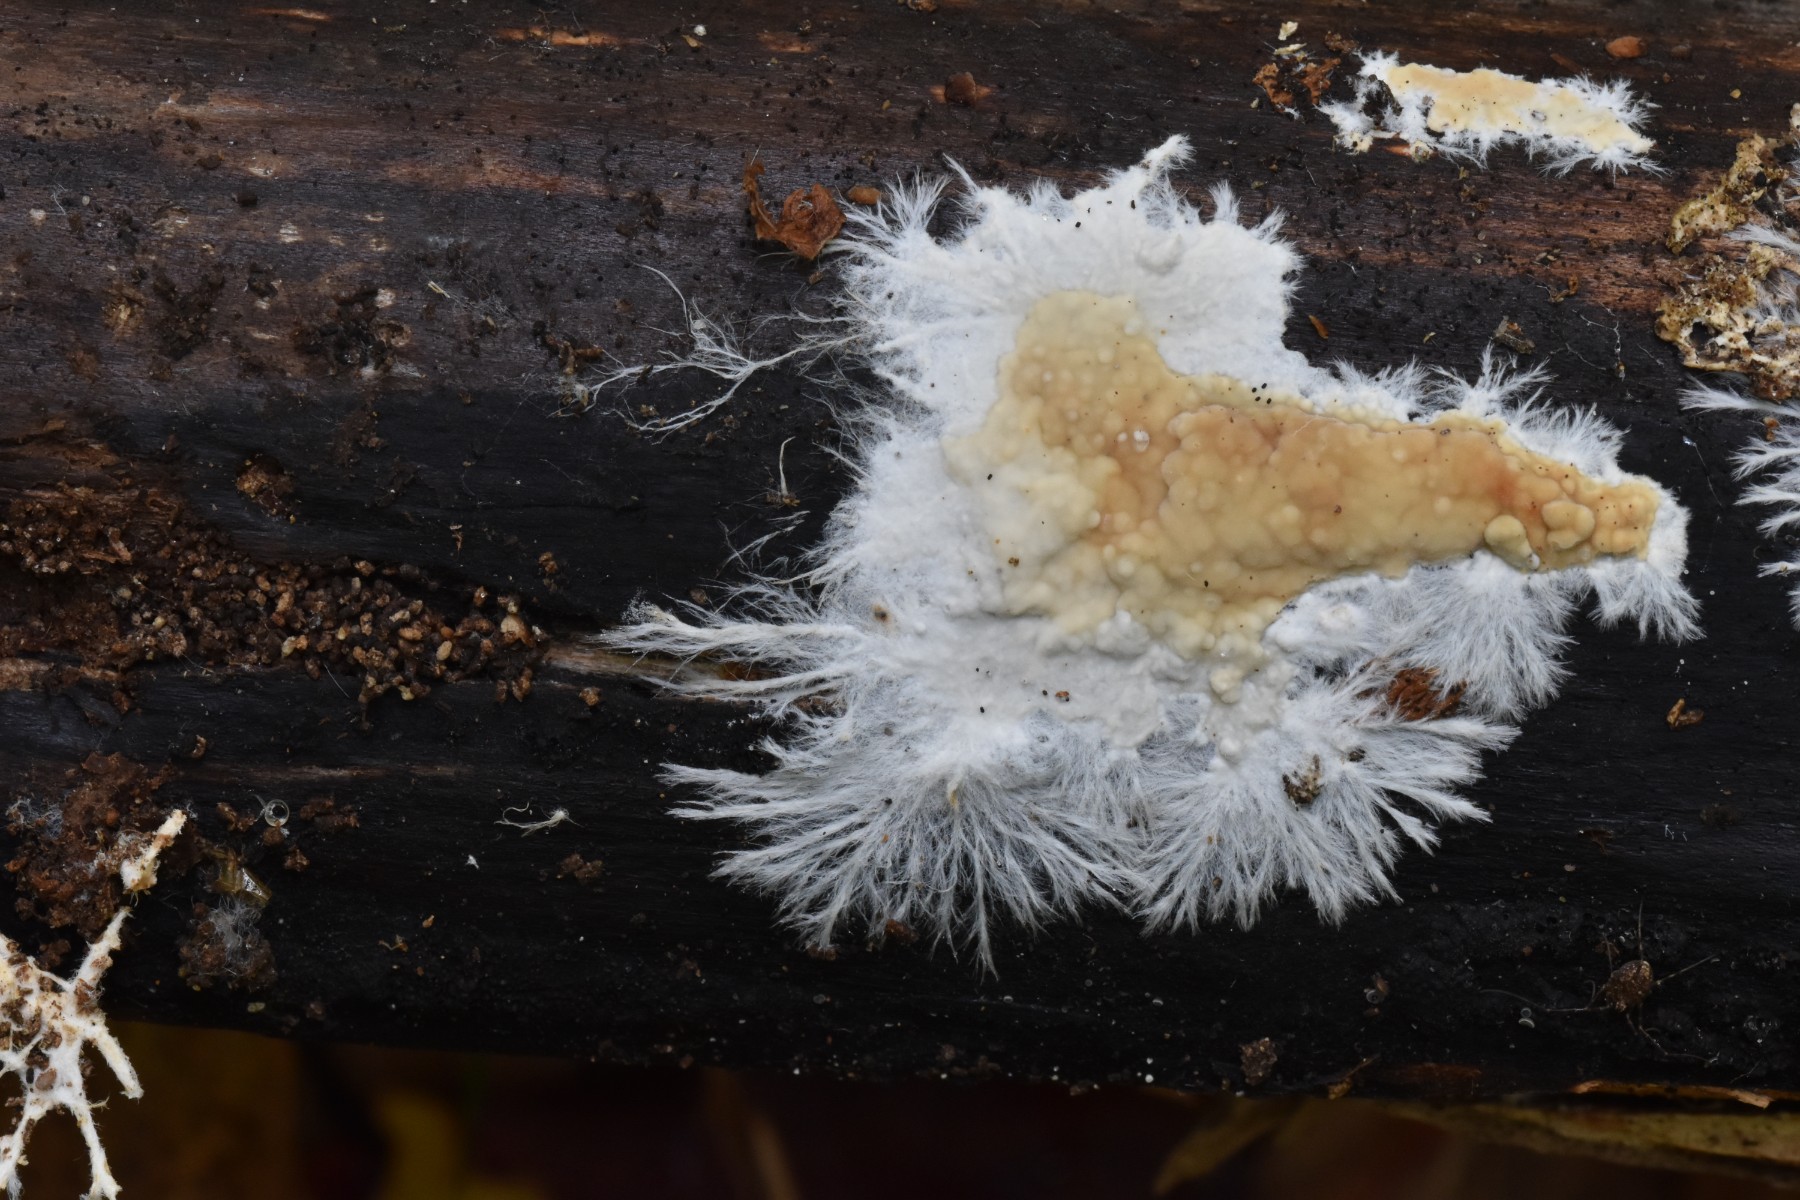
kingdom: Fungi
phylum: Basidiomycota
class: Agaricomycetes
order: Polyporales
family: Phanerochaetaceae
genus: Phanerochaete
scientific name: Phanerochaete velutina
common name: dunet randtråd
